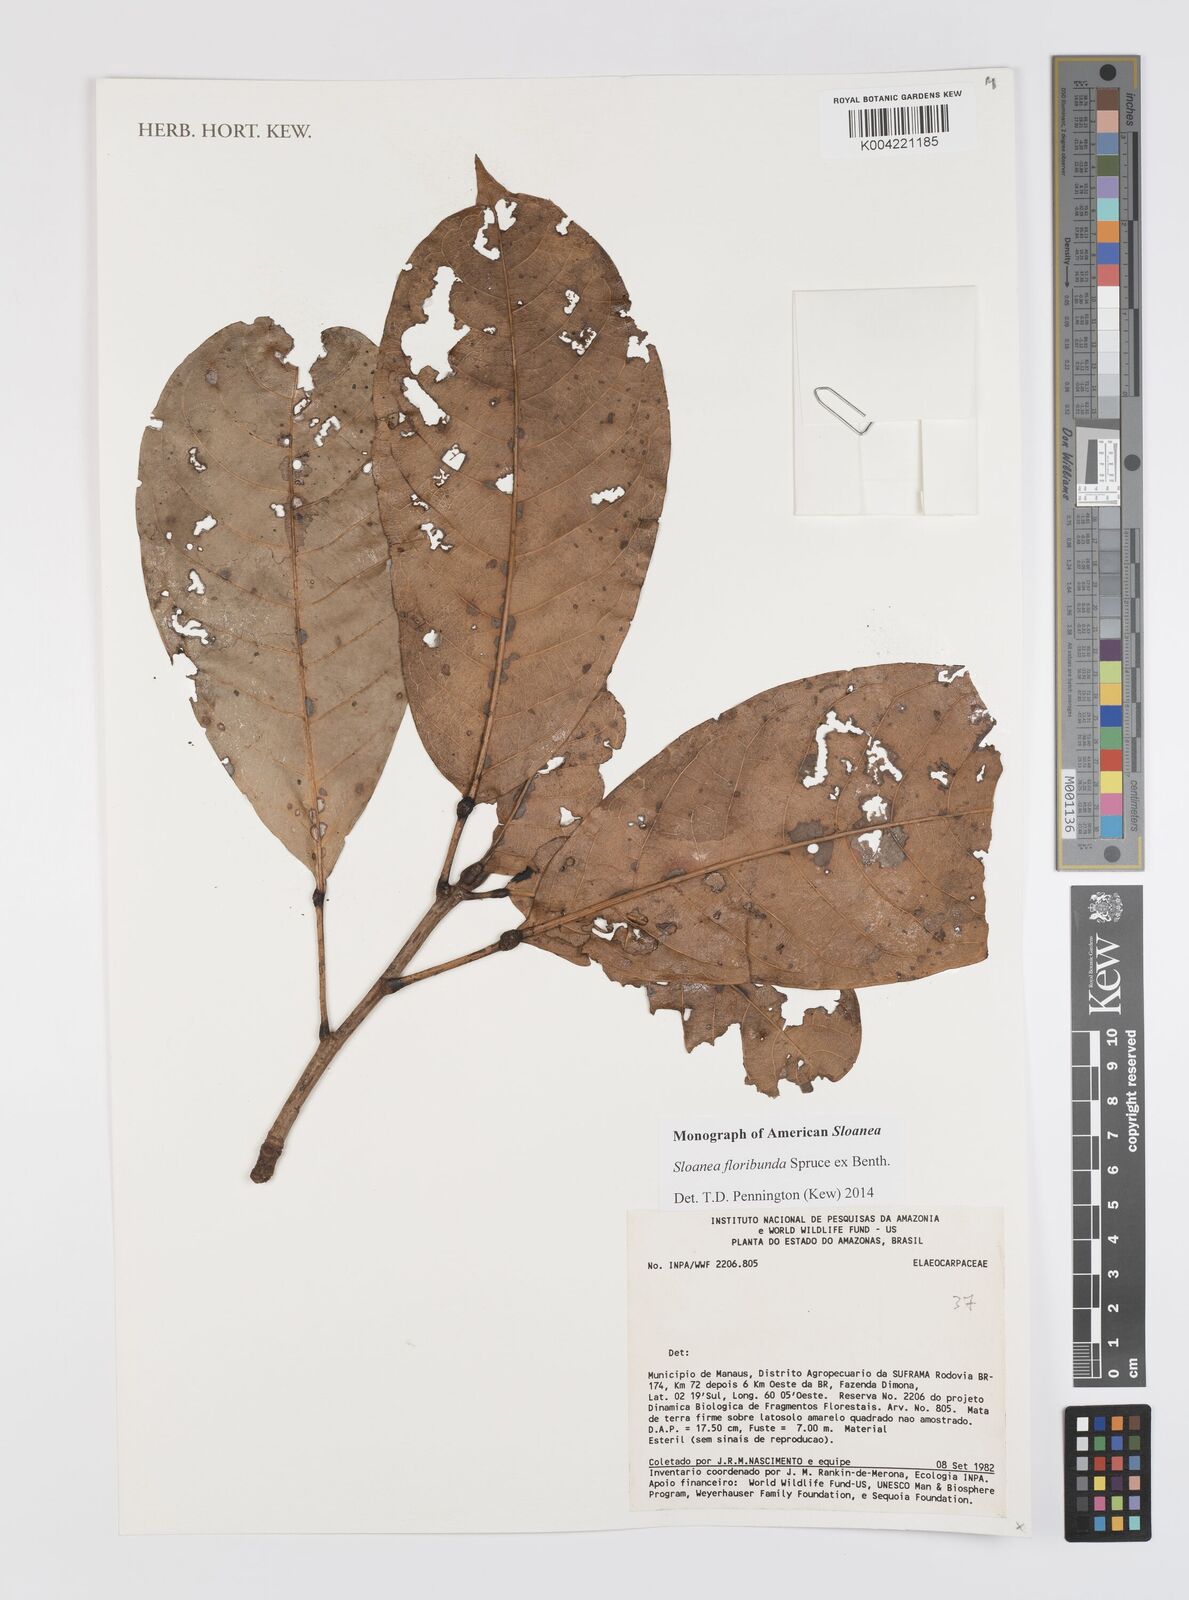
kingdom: Plantae
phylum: Tracheophyta
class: Magnoliopsida
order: Oxalidales
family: Elaeocarpaceae
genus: Sloanea
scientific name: Sloanea floribunda
